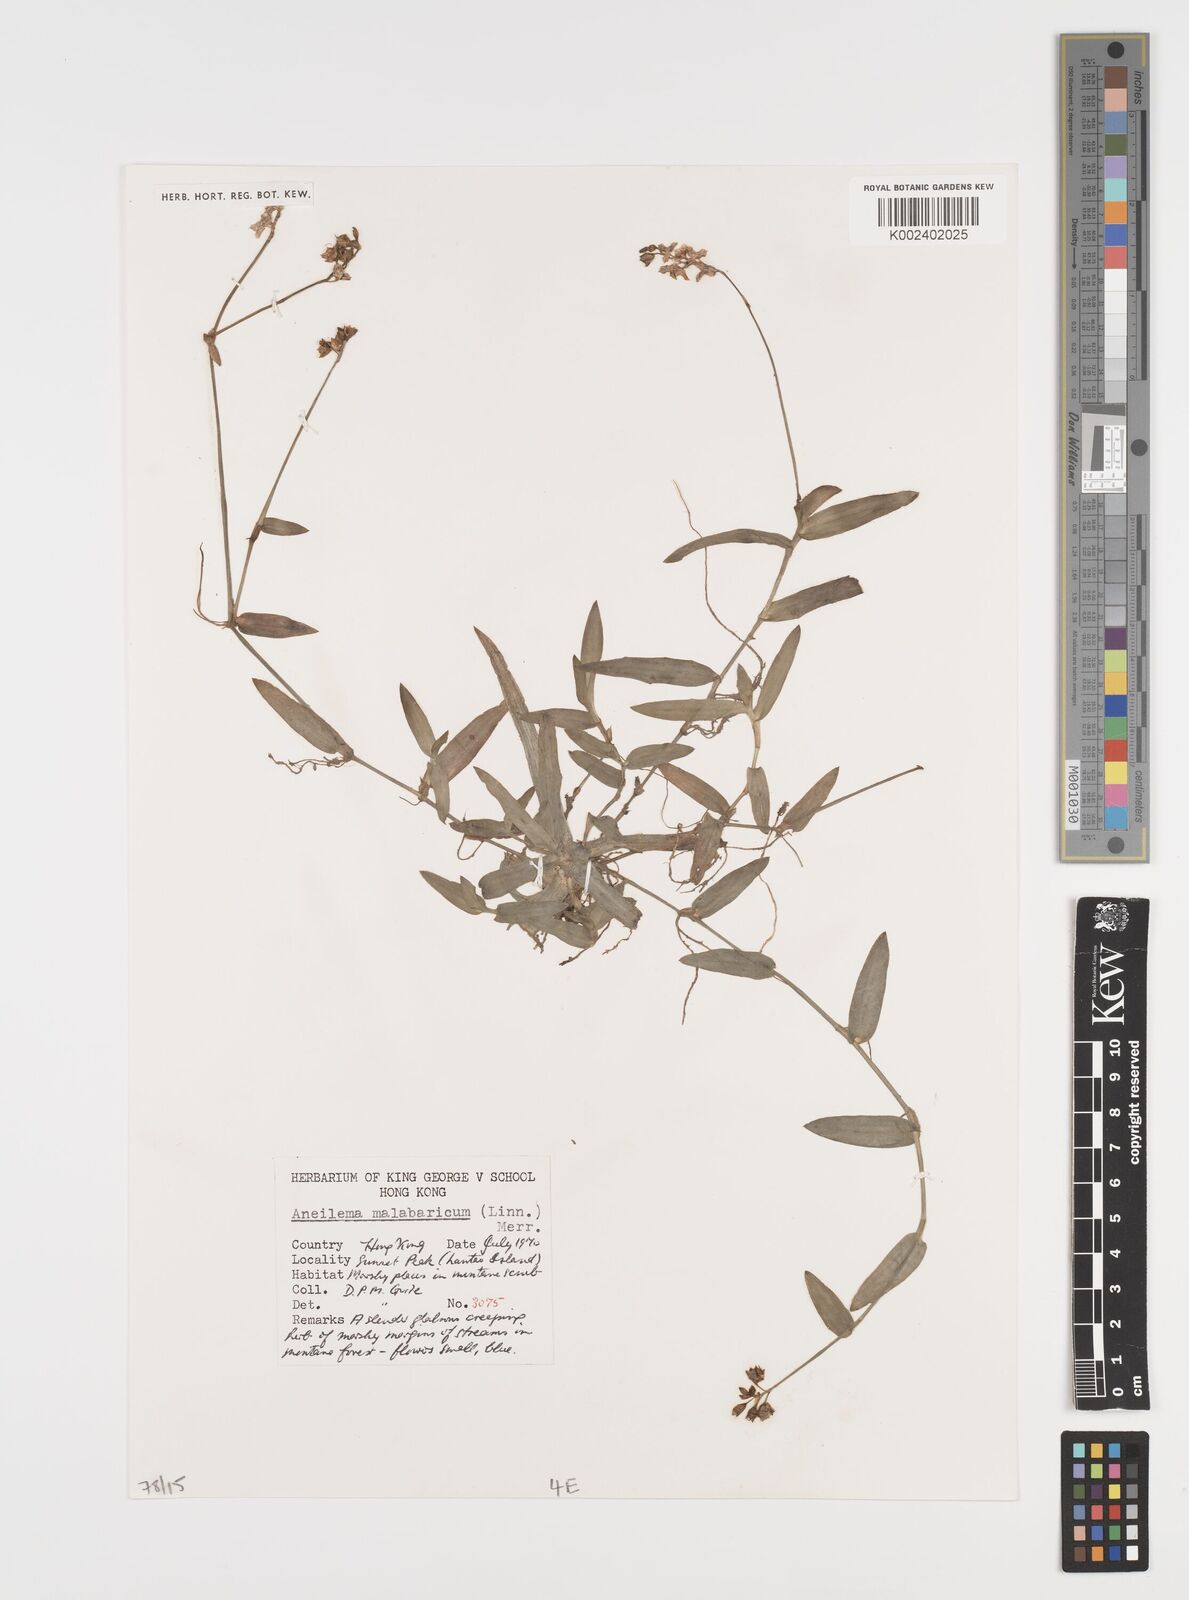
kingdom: Plantae
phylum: Tracheophyta
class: Liliopsida
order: Commelinales
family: Commelinaceae
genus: Murdannia
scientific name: Murdannia nudiflora
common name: Nakedstem dewflower
